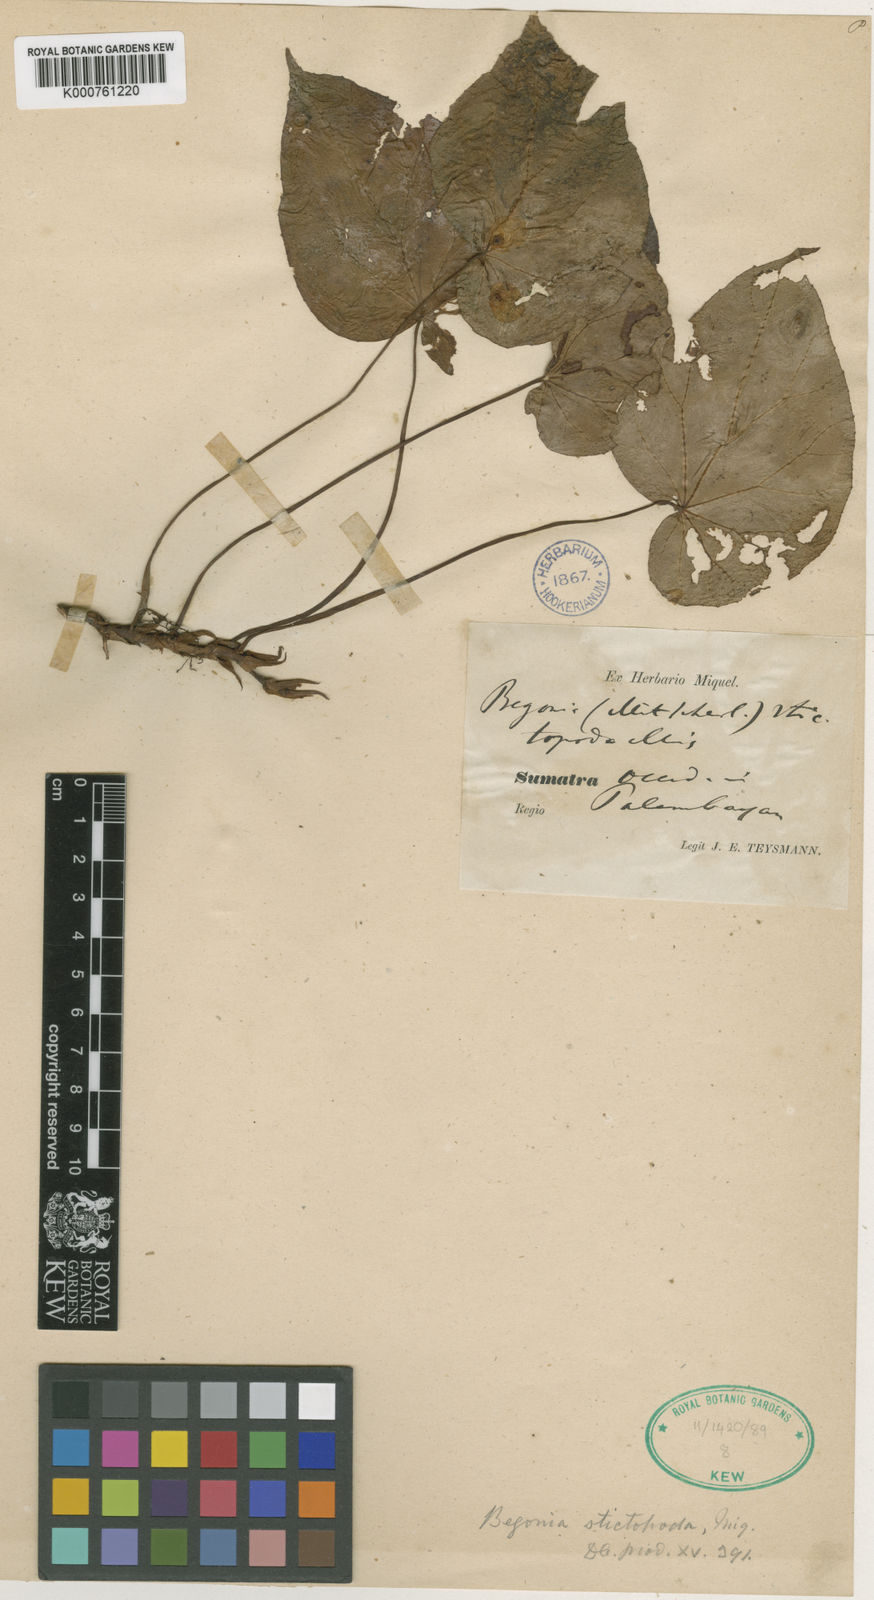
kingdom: Plantae
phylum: Tracheophyta
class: Magnoliopsida
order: Cucurbitales
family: Begoniaceae
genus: Begonia
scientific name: Begonia
